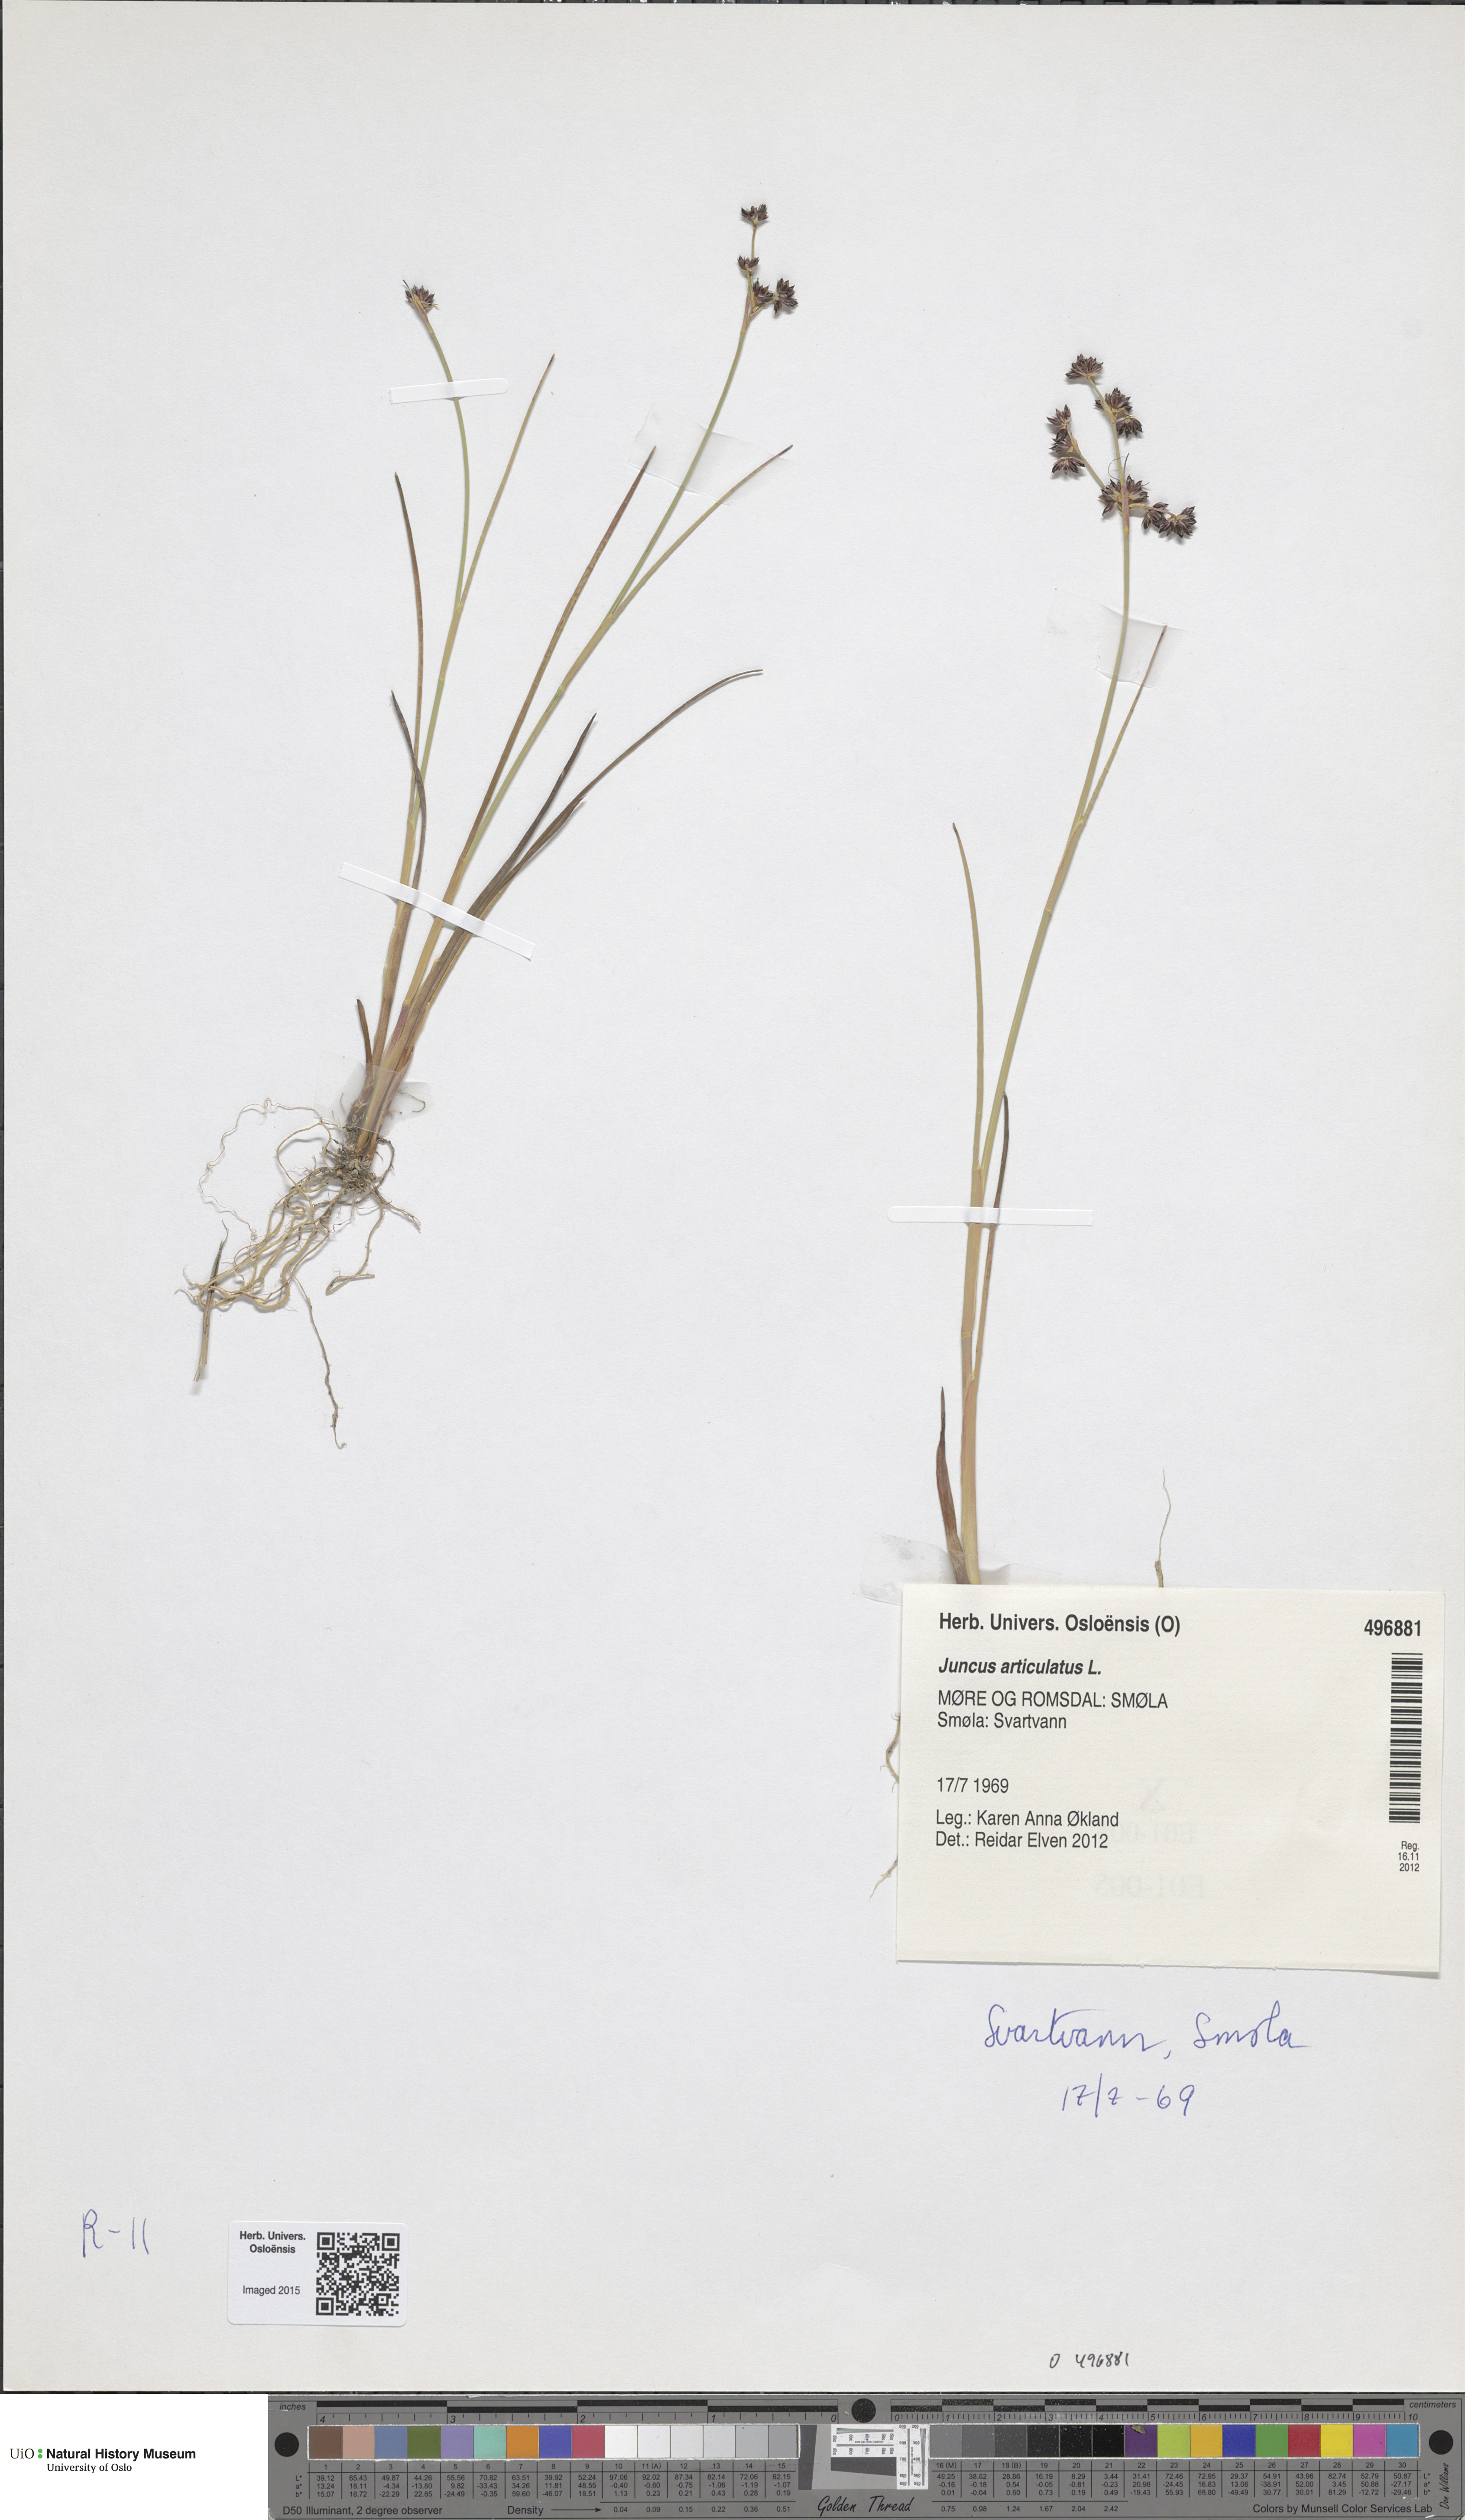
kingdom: Plantae
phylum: Tracheophyta
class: Liliopsida
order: Poales
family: Juncaceae
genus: Juncus
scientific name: Juncus articulatus
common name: Jointed rush
